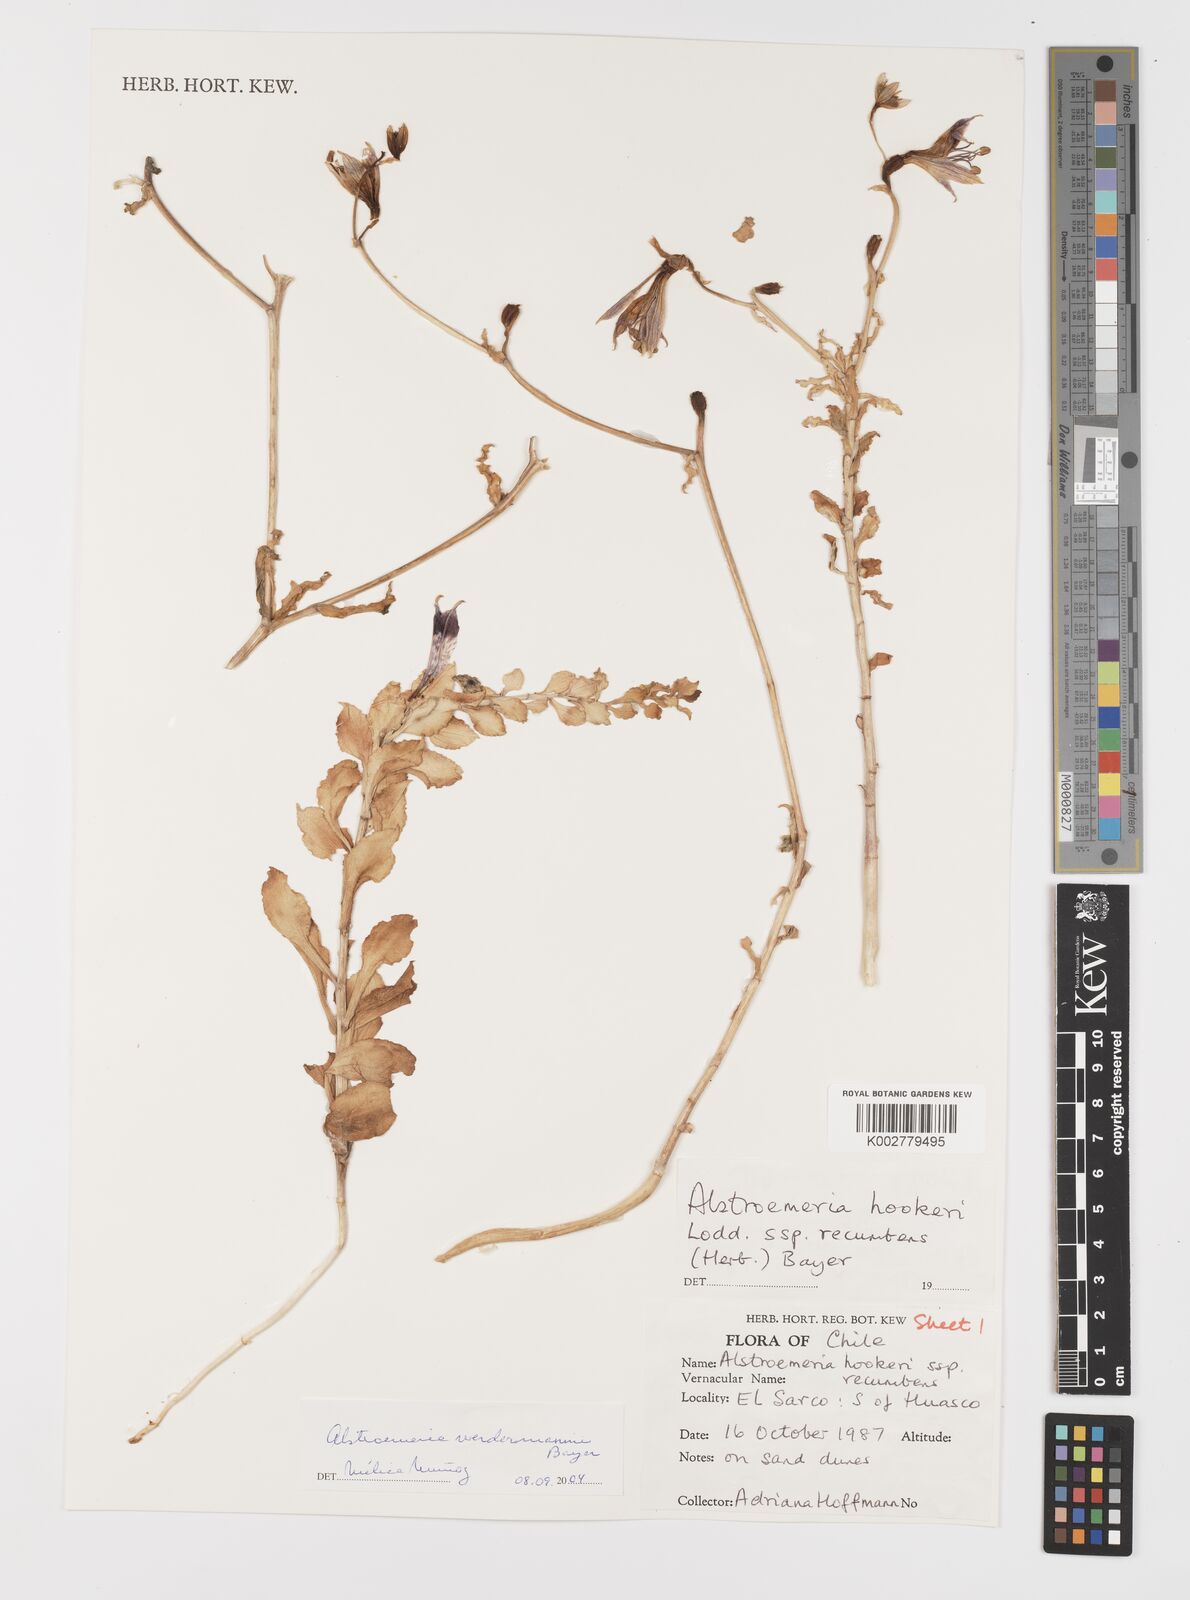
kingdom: Plantae
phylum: Tracheophyta
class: Liliopsida
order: Liliales
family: Alstroemeriaceae
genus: Alstroemeria
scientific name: Alstroemeria werdermannii
